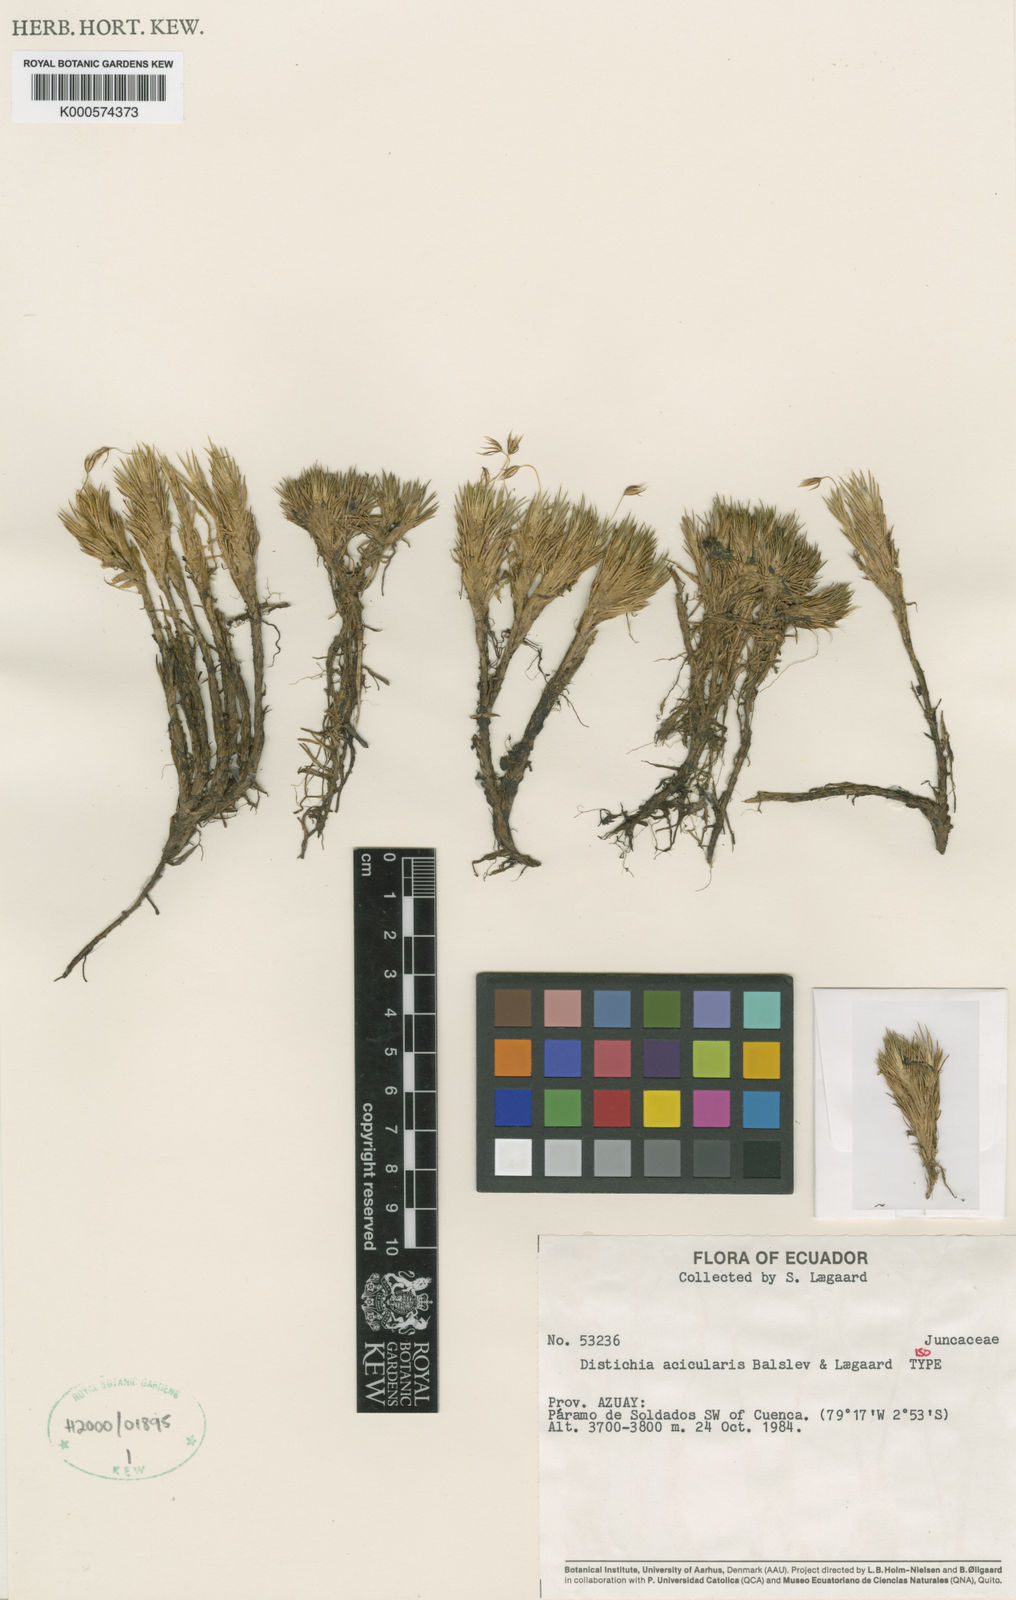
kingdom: Plantae
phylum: Tracheophyta
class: Liliopsida
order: Poales
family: Juncaceae
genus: Distichia
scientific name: Distichia acicularis
